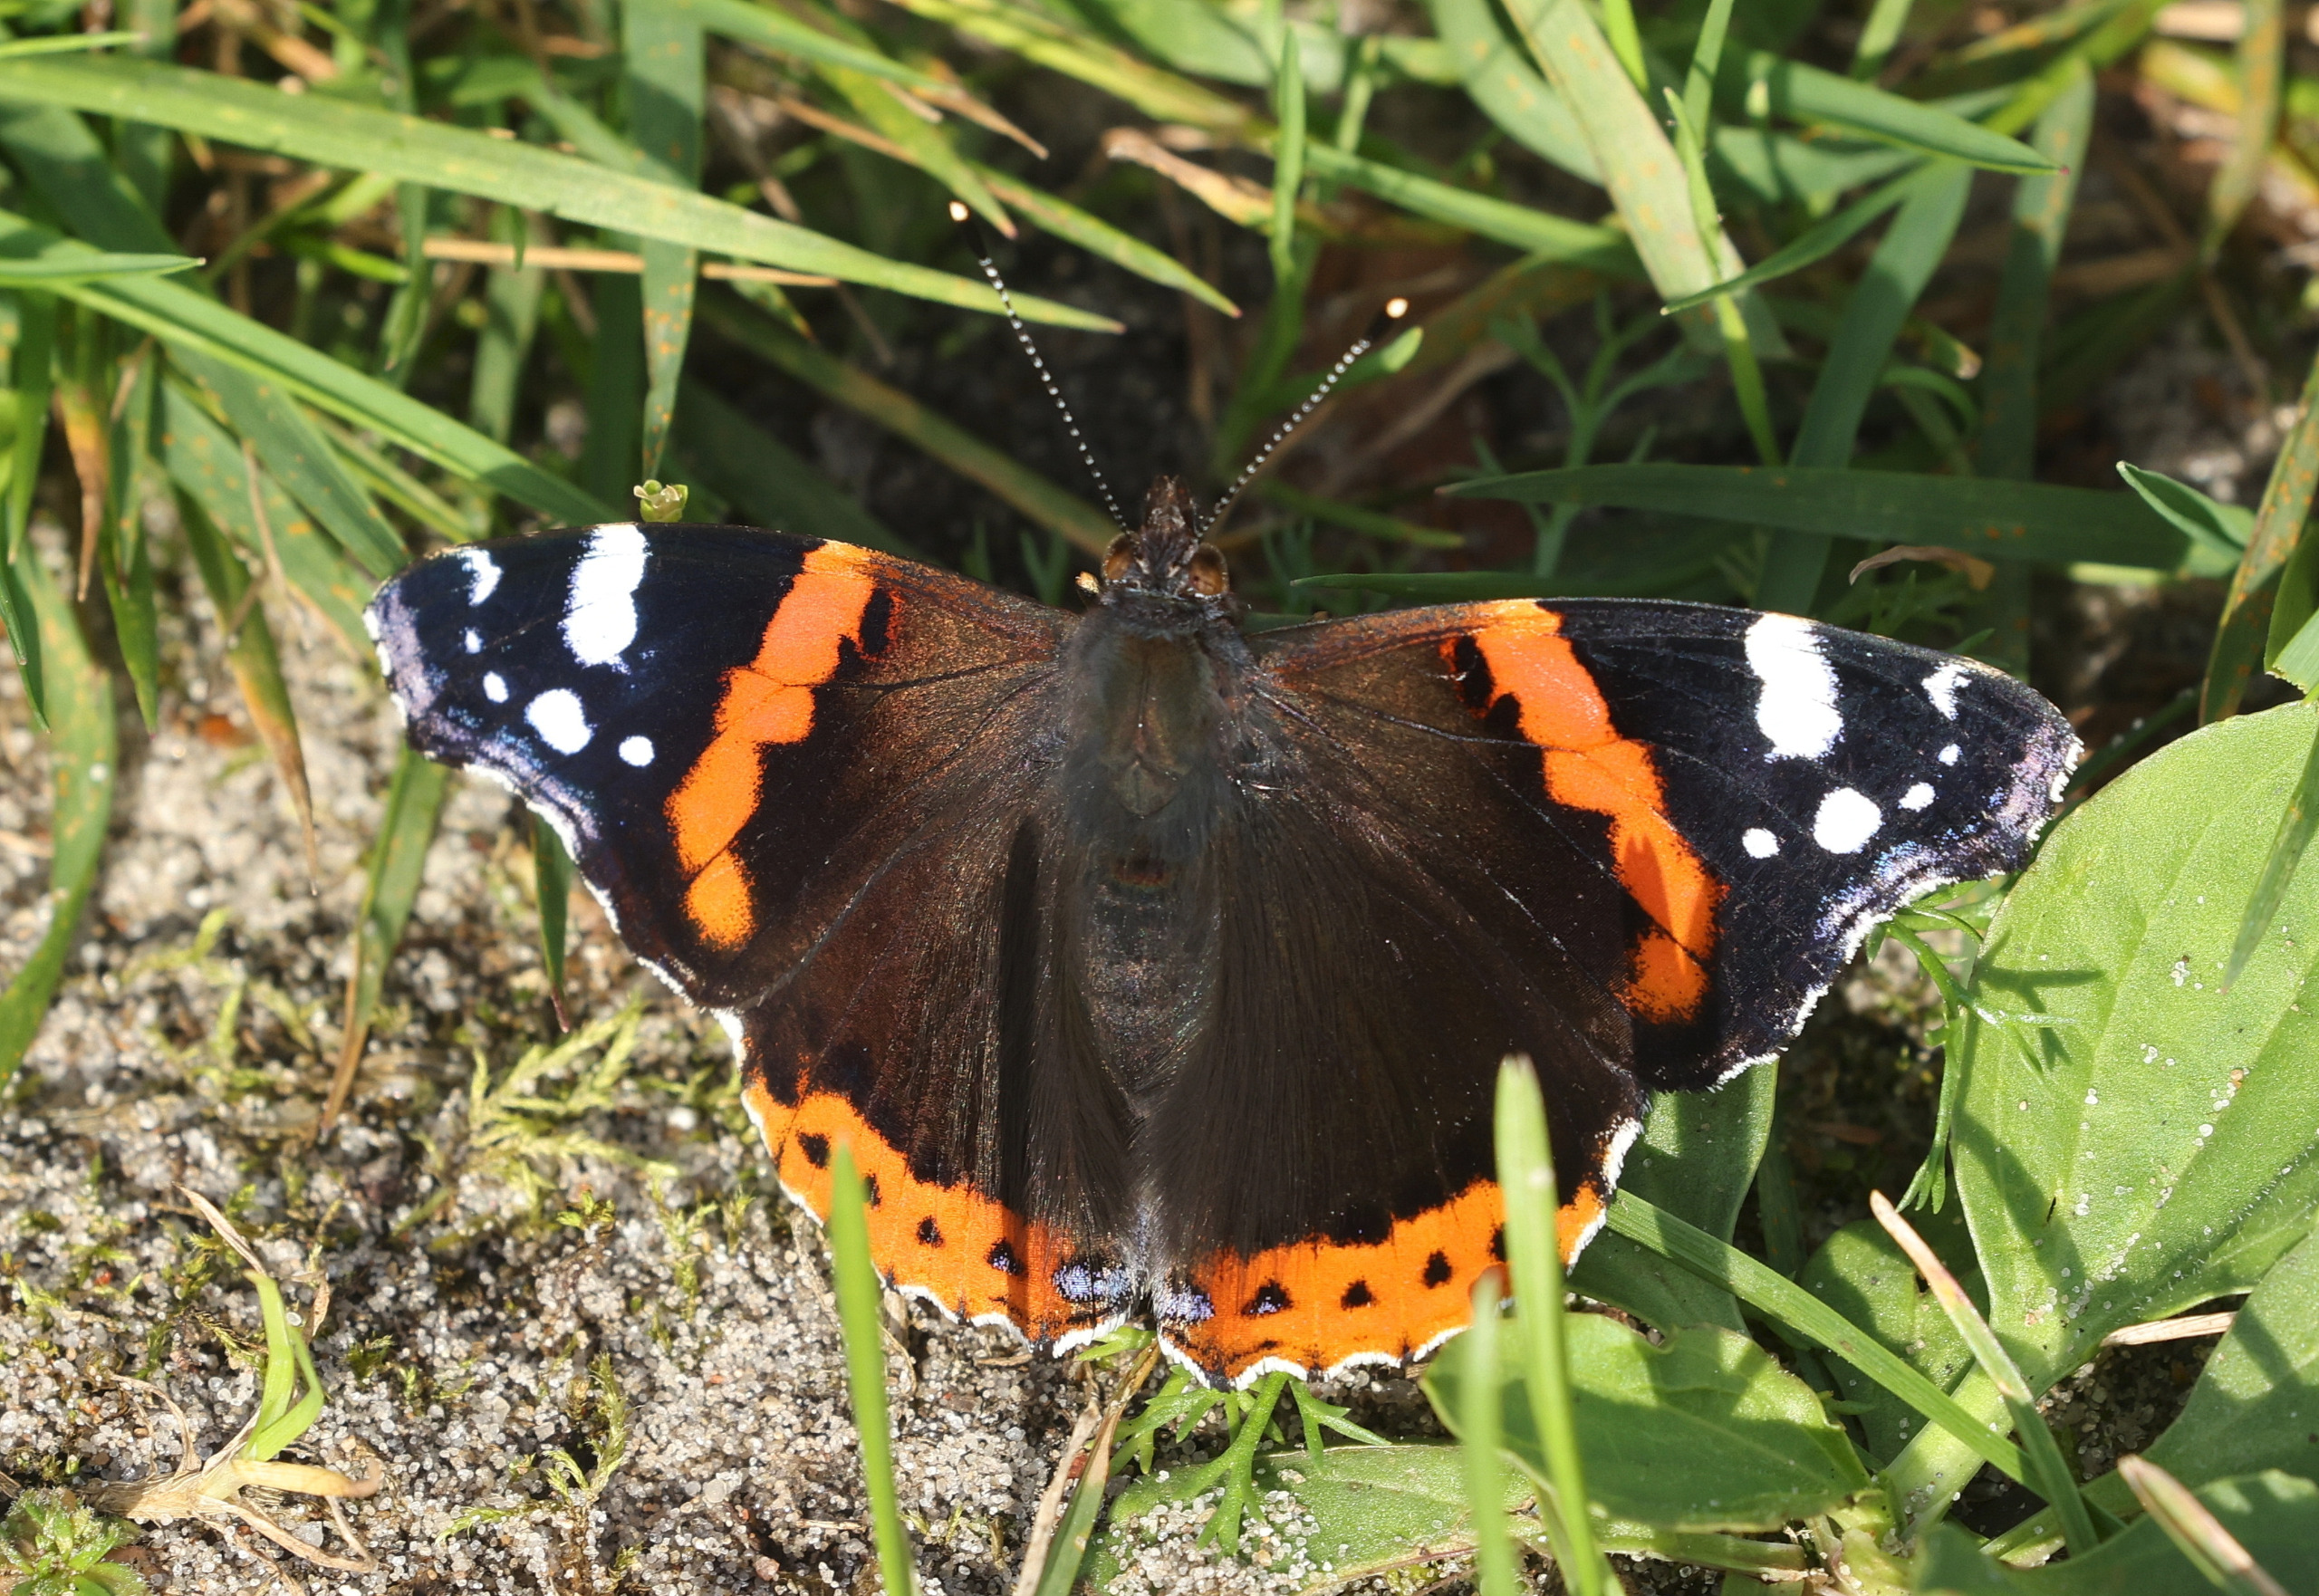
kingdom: Animalia
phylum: Arthropoda
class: Insecta
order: Lepidoptera
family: Nymphalidae
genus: Vanessa
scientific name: Vanessa atalanta
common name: Admiral
